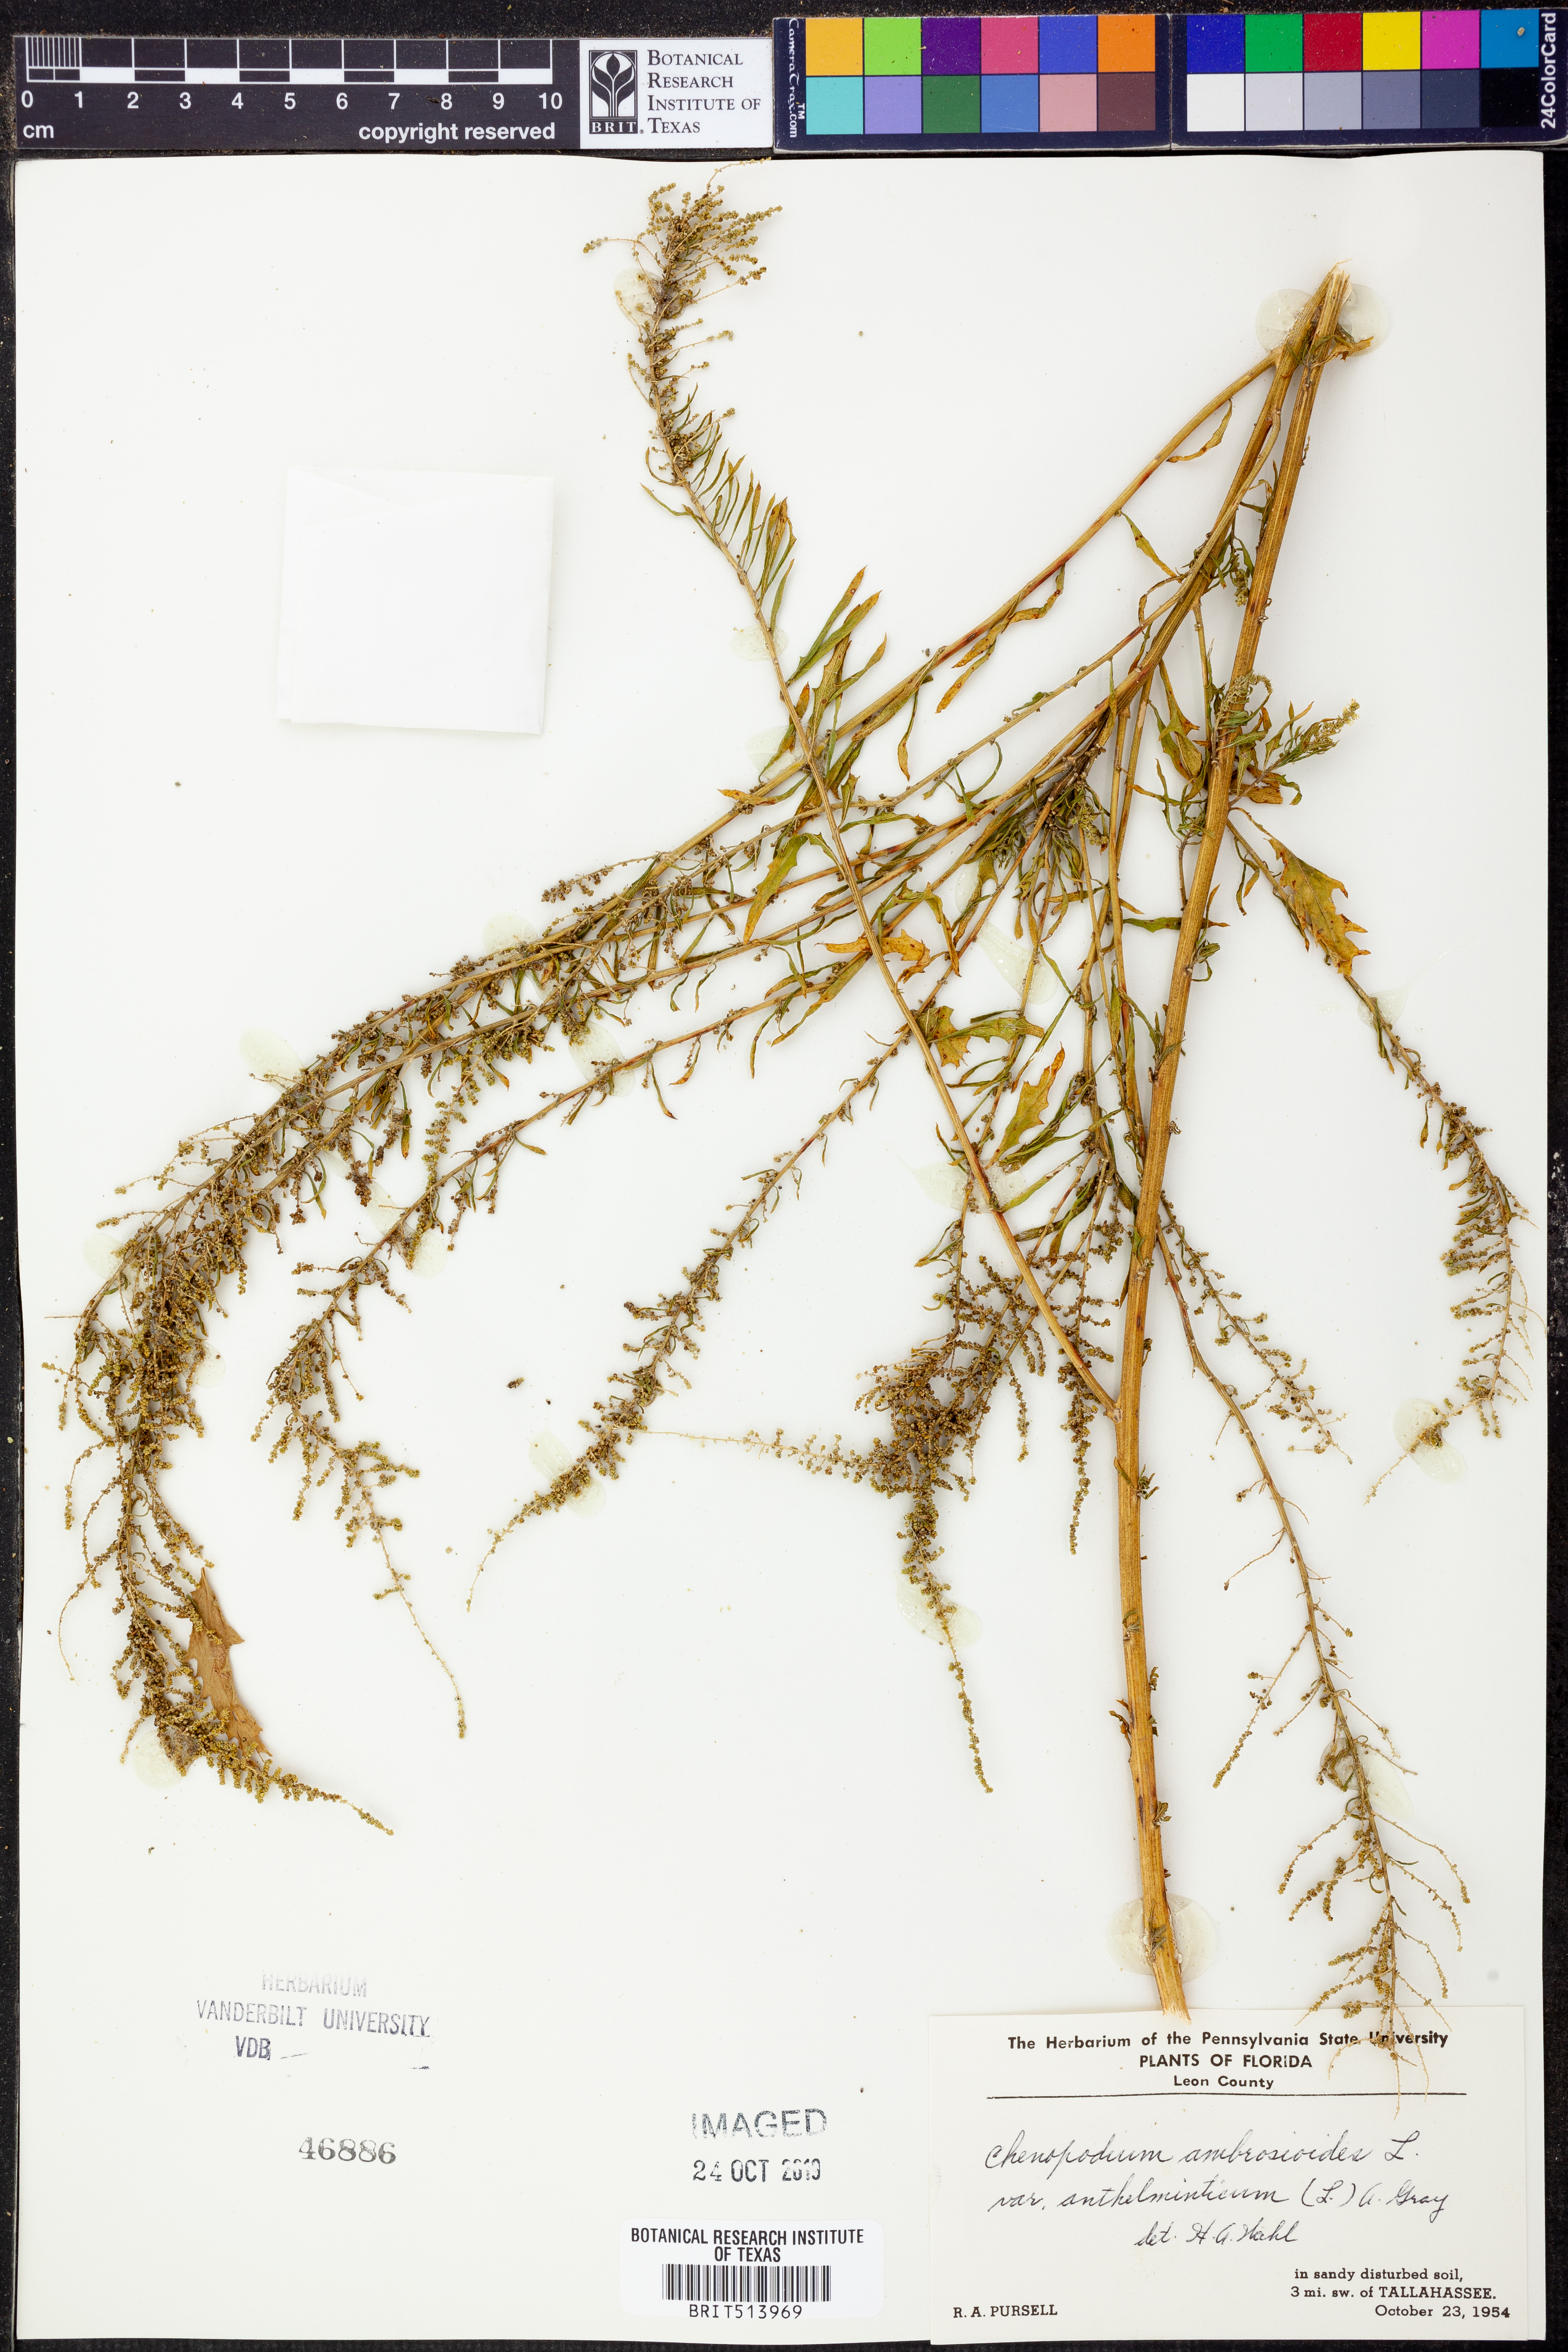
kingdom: Plantae
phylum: Tracheophyta
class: Magnoliopsida
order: Caryophyllales
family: Amaranthaceae
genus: Dysphania
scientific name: Dysphania ambrosioides
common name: Wormseed
